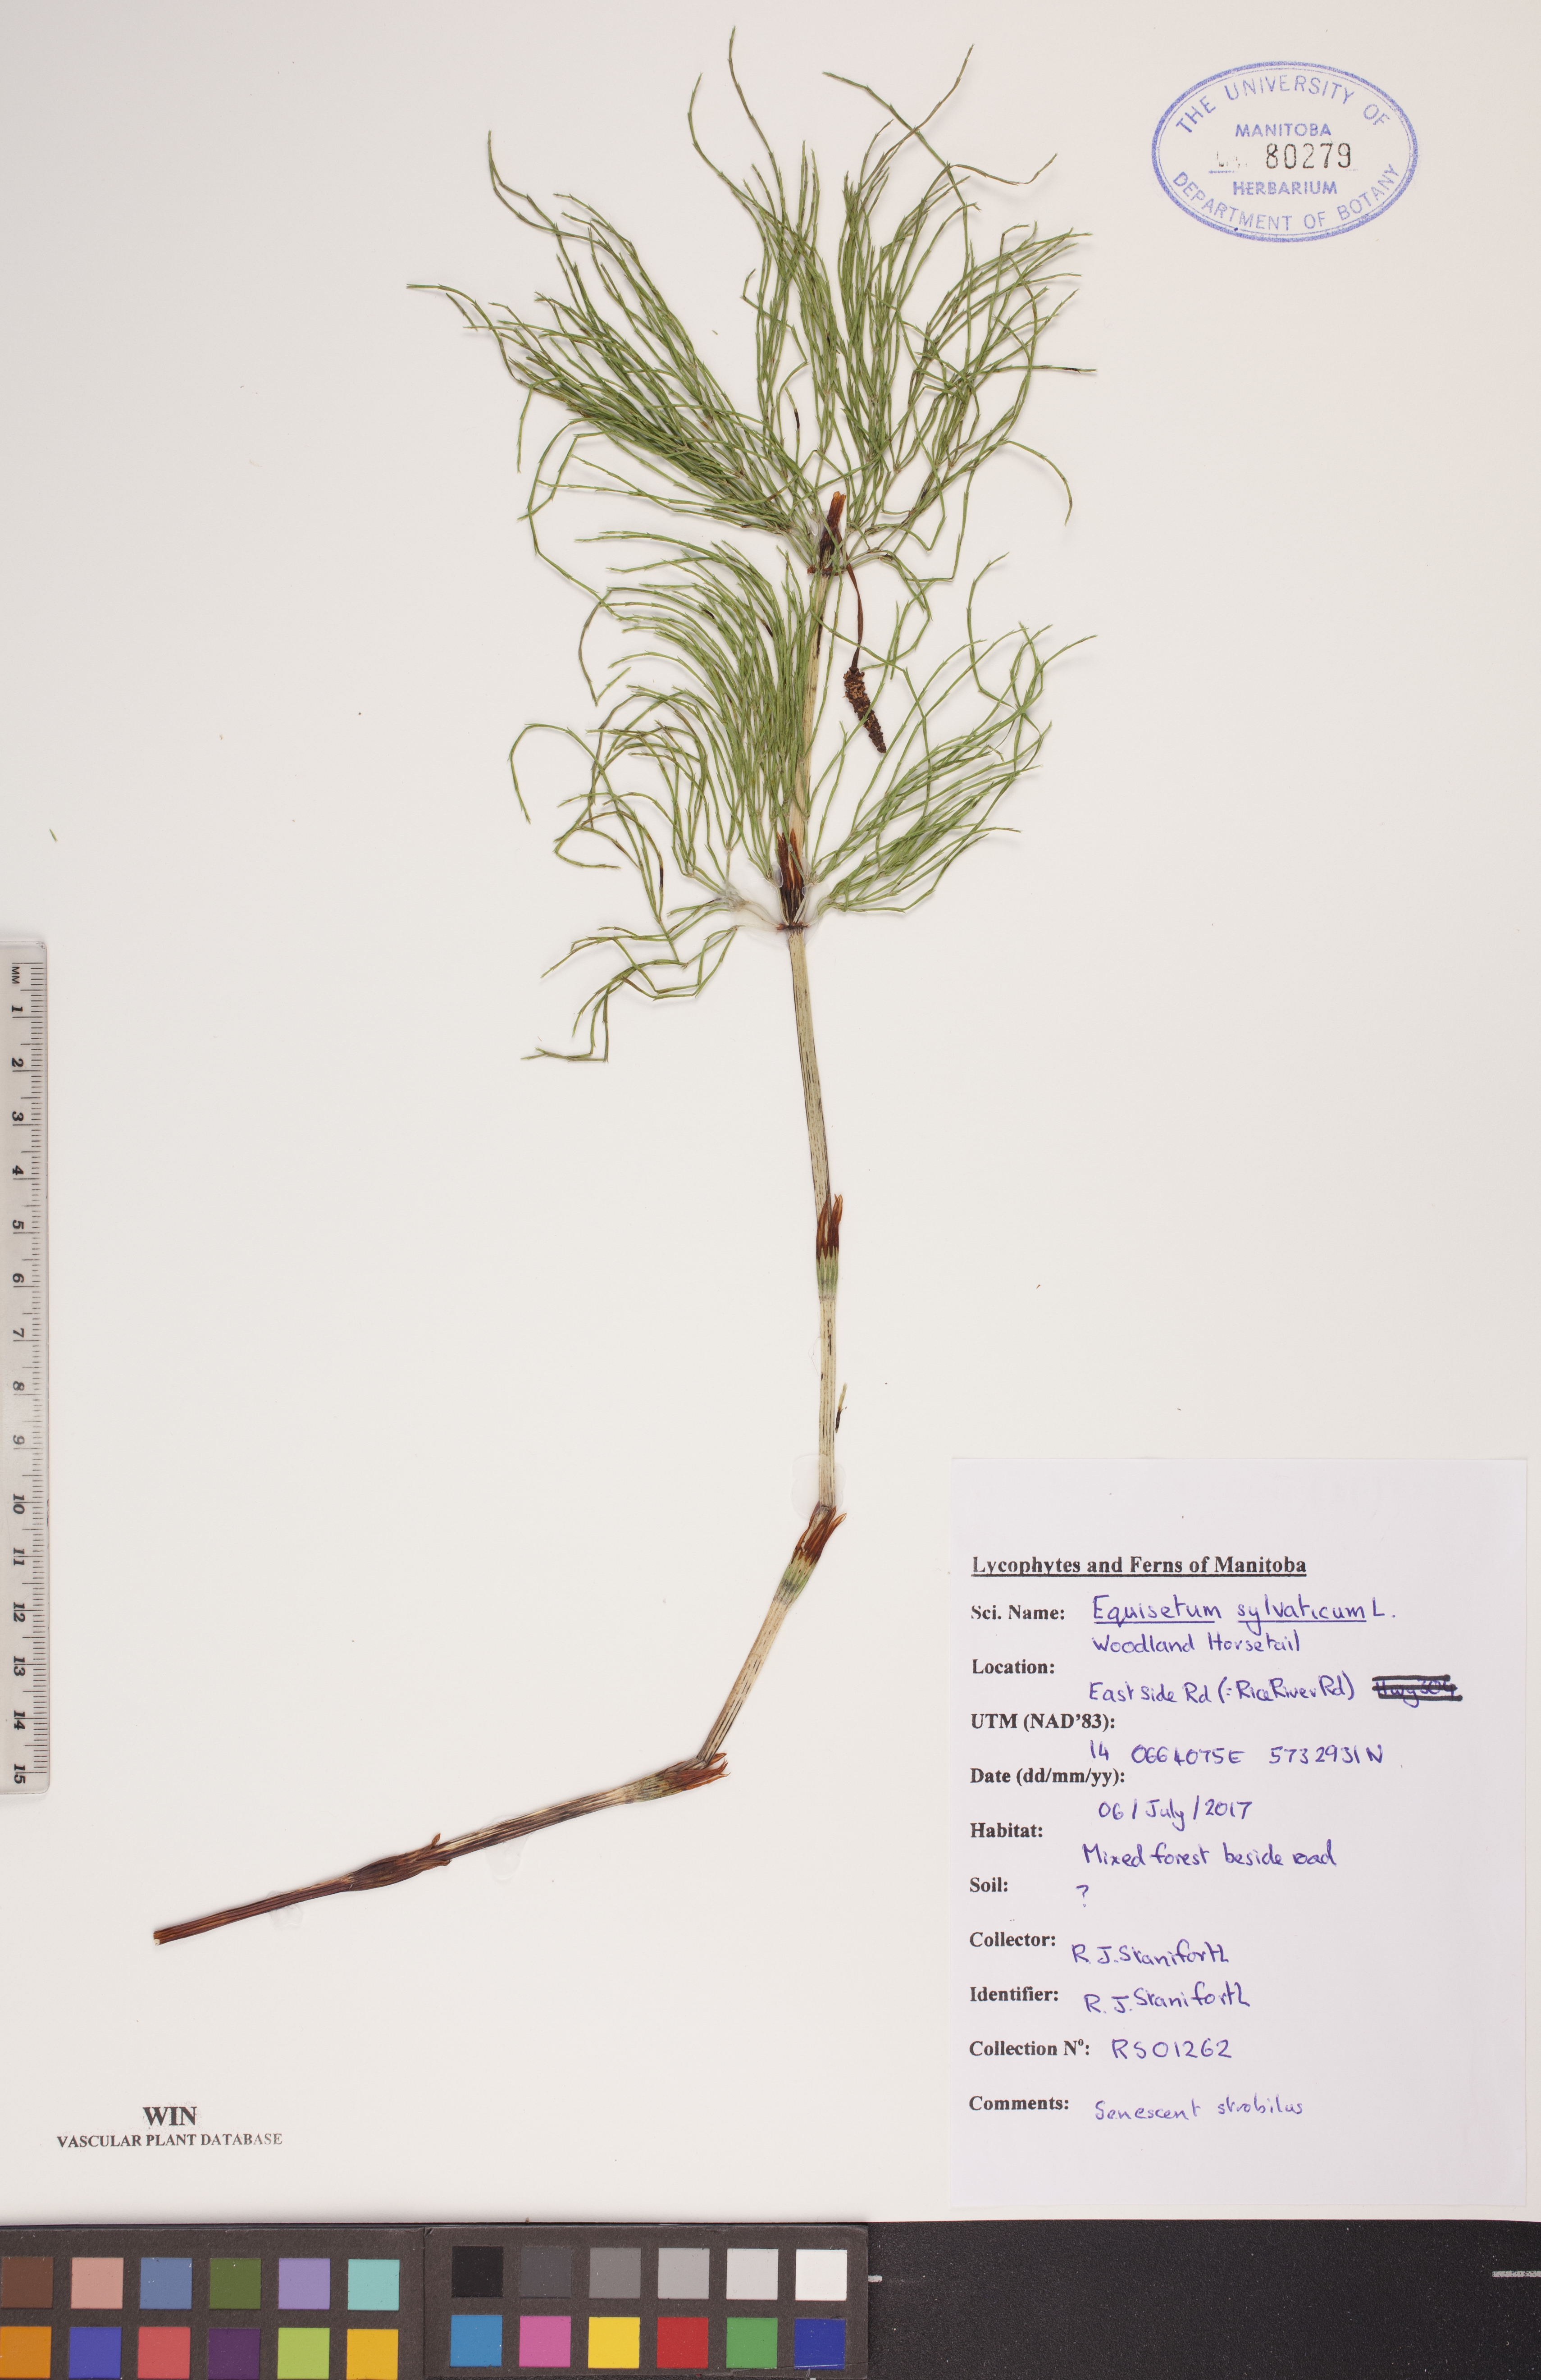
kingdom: Plantae
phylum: Tracheophyta
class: Polypodiopsida
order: Equisetales
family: Equisetaceae
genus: Equisetum
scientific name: Equisetum sylvaticum
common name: Wood horsetail
